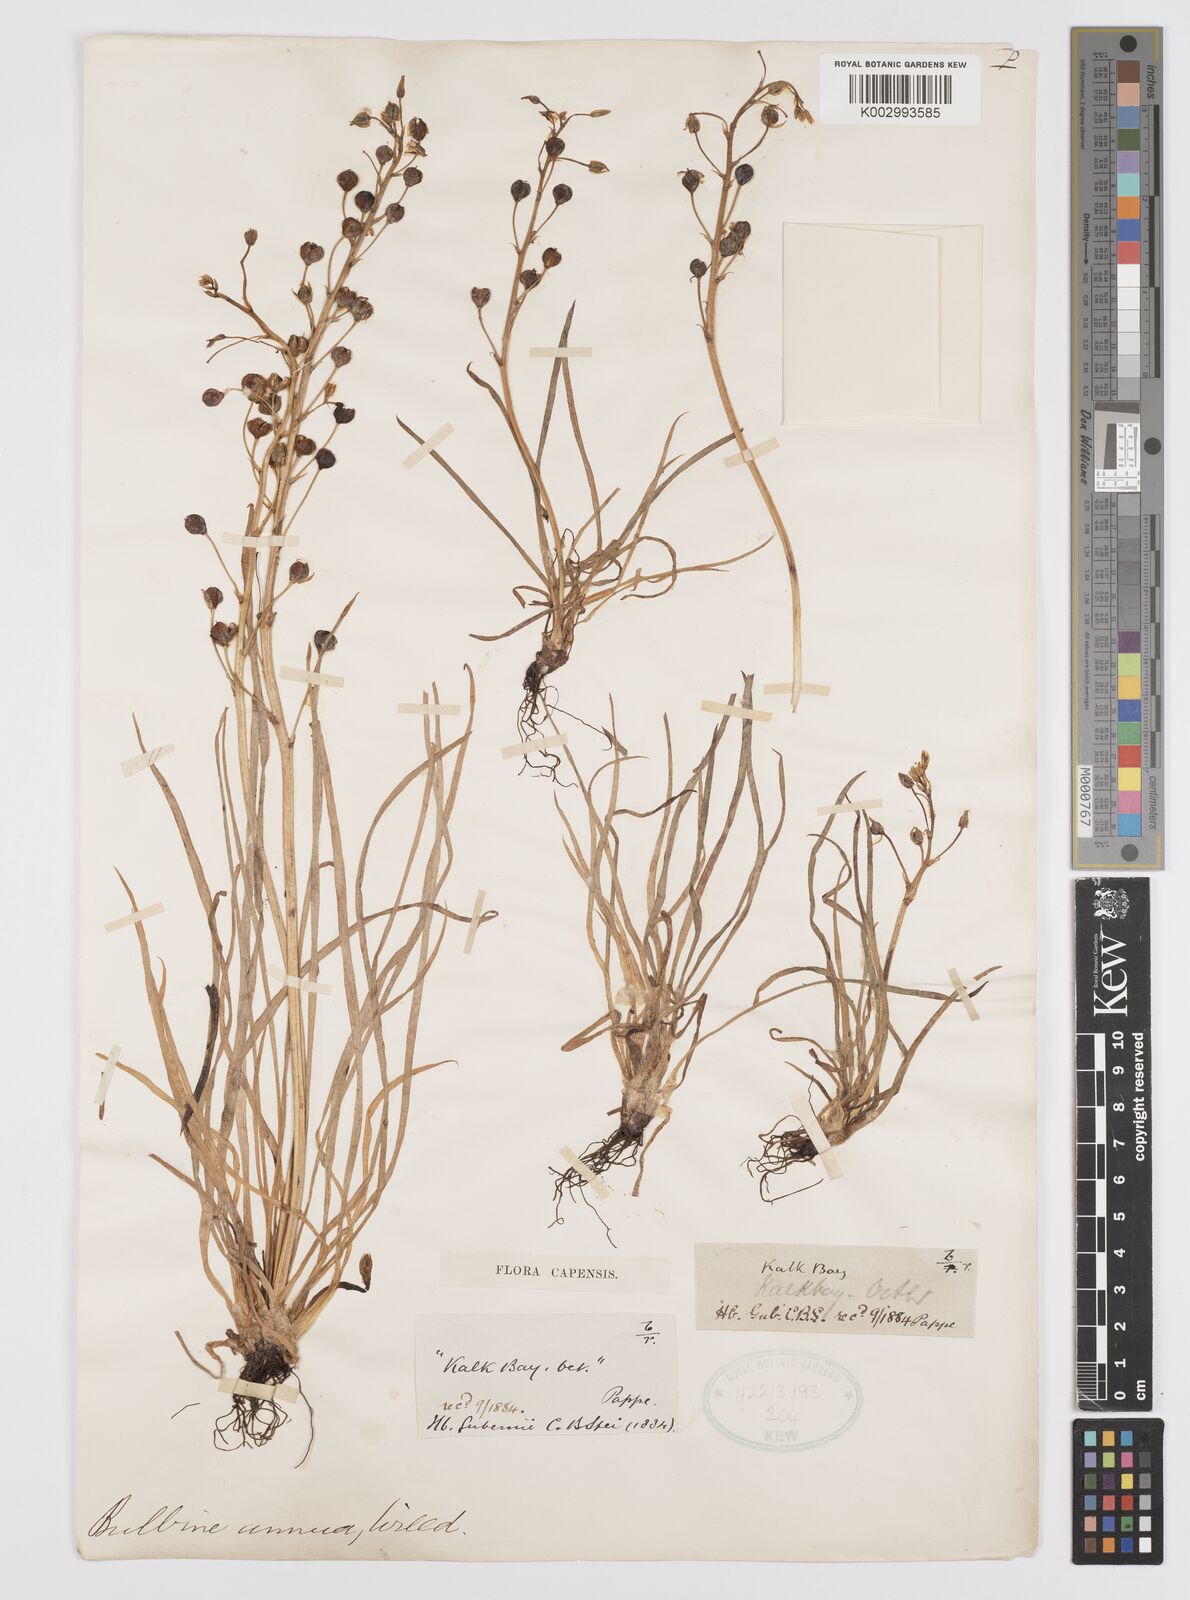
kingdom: Plantae
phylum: Tracheophyta
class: Liliopsida
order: Asparagales
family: Asphodelaceae
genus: Bulbine
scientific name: Bulbine annua
